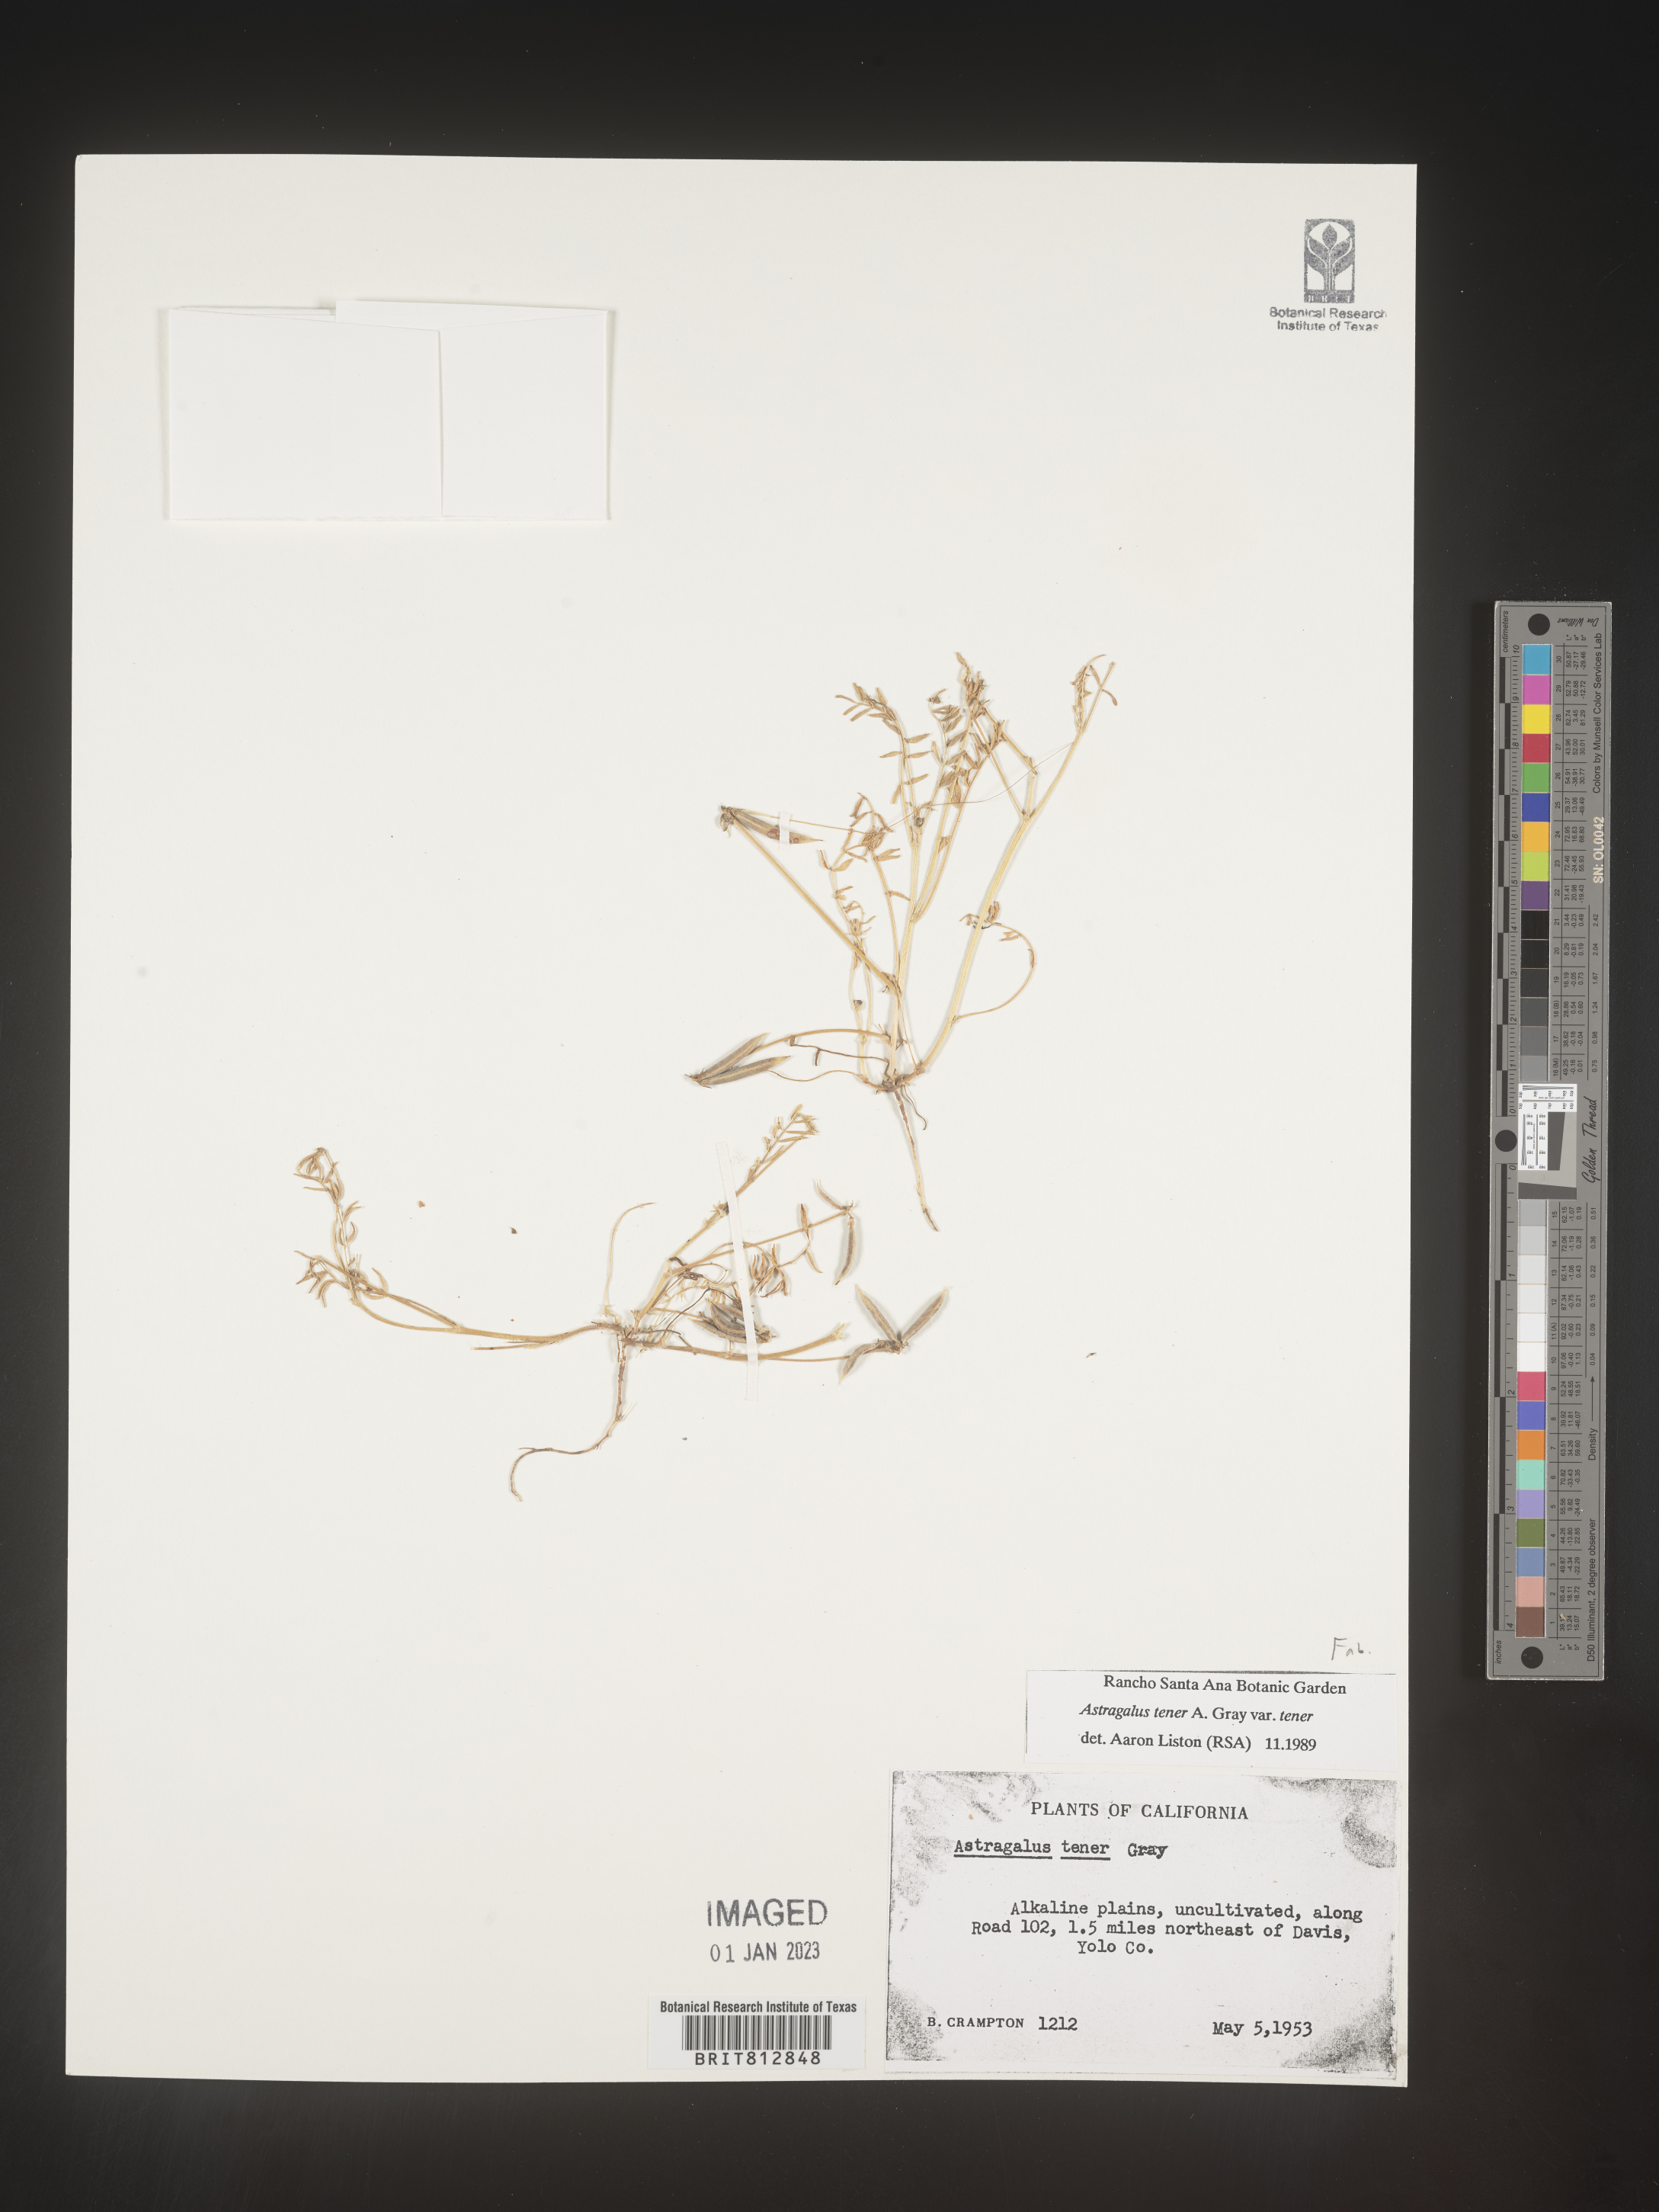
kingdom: Plantae
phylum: Tracheophyta
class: Magnoliopsida
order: Fabales
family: Fabaceae
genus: Astragalus
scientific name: Astragalus
